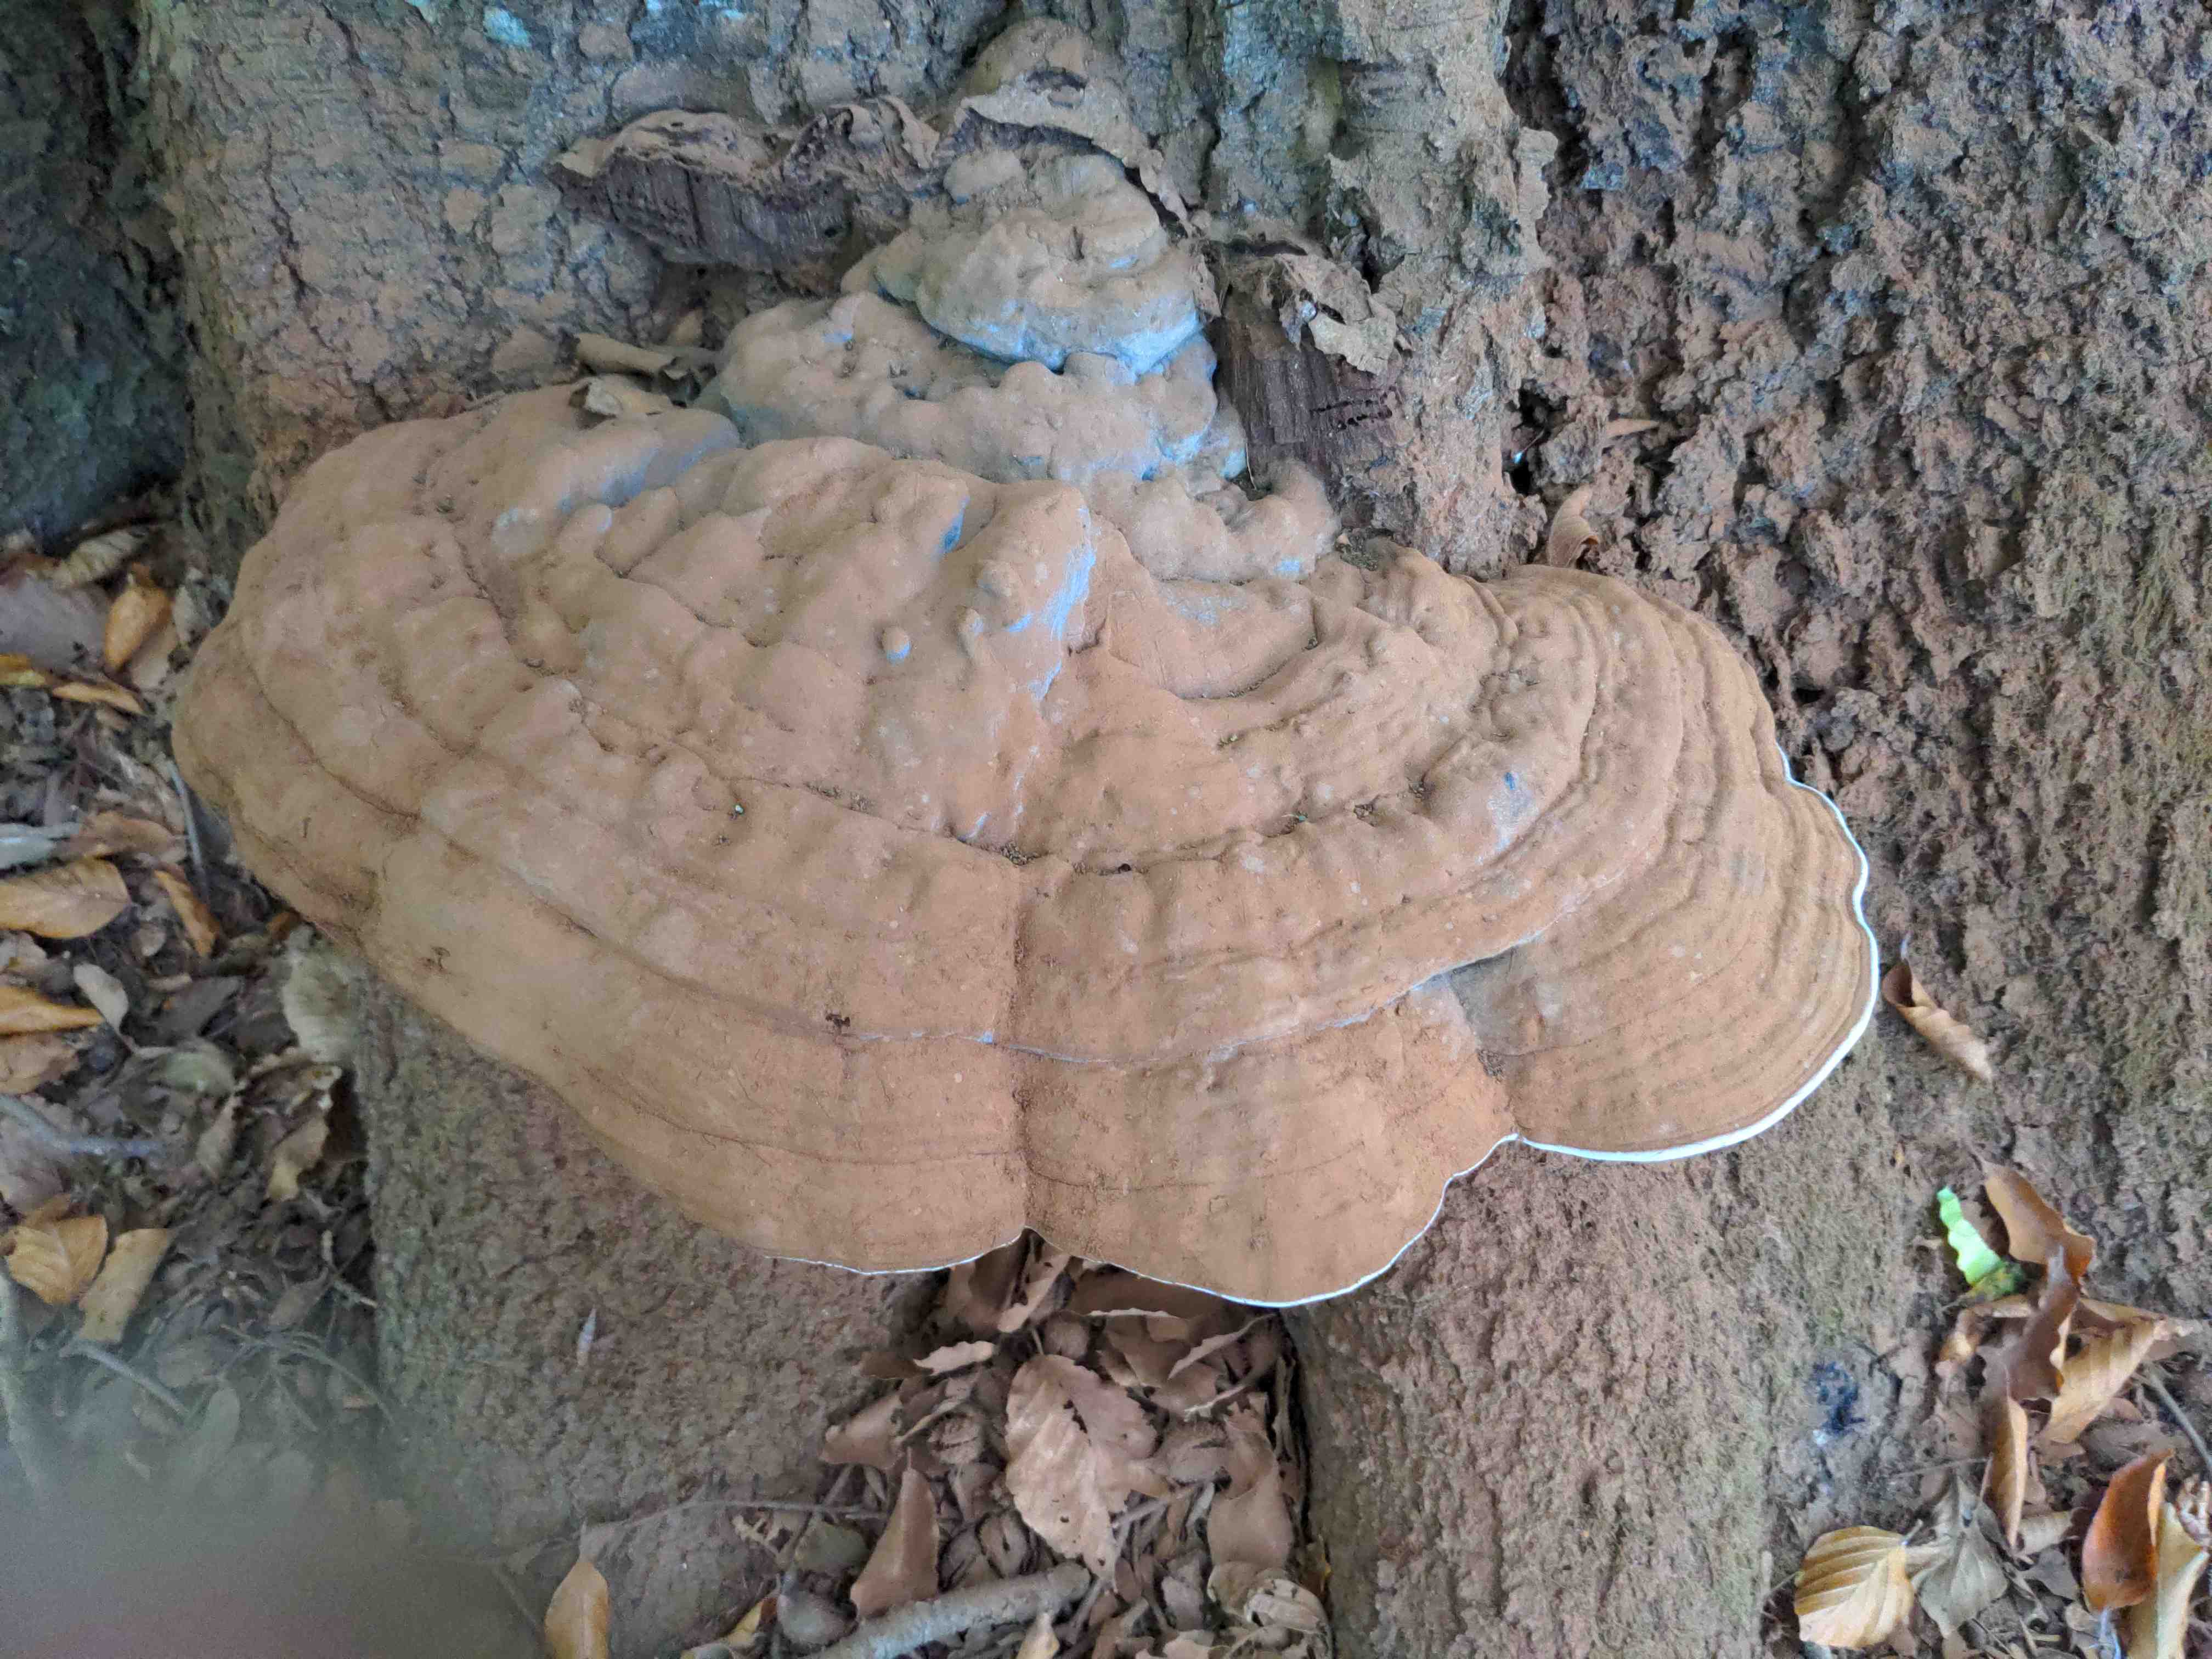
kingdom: Fungi
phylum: Basidiomycota
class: Agaricomycetes
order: Polyporales
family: Polyporaceae
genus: Ganoderma
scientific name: Ganoderma pfeifferi
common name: kobberrød lakporesvamp
